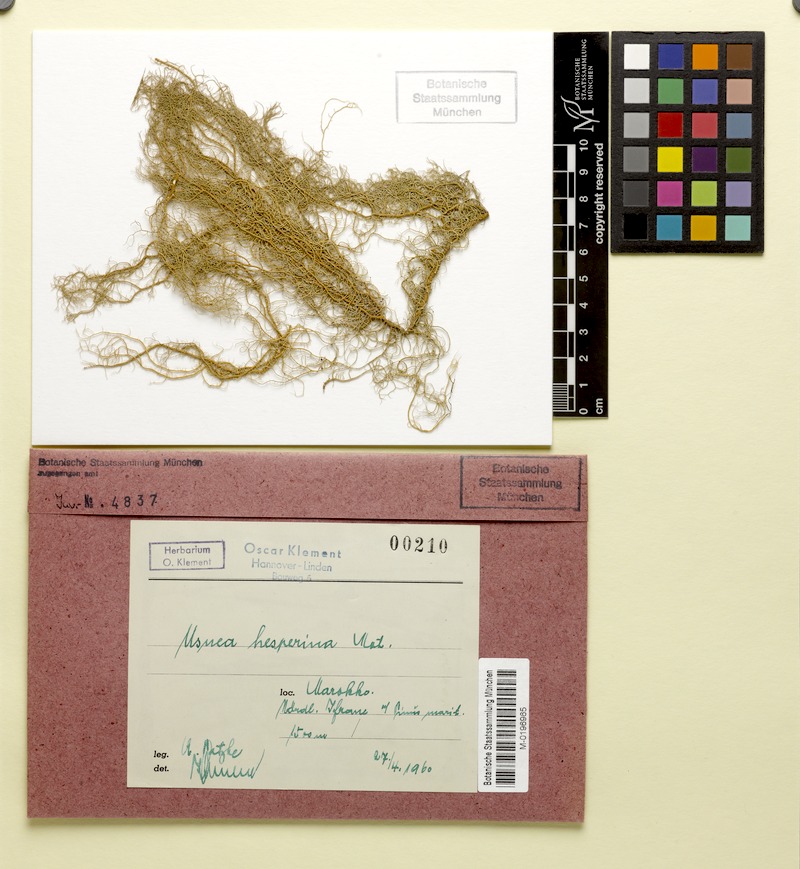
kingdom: Fungi
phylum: Ascomycota
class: Lecanoromycetes
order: Lecanorales
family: Parmeliaceae
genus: Usnea
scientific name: Usnea subgracilis
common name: Beard lichen
